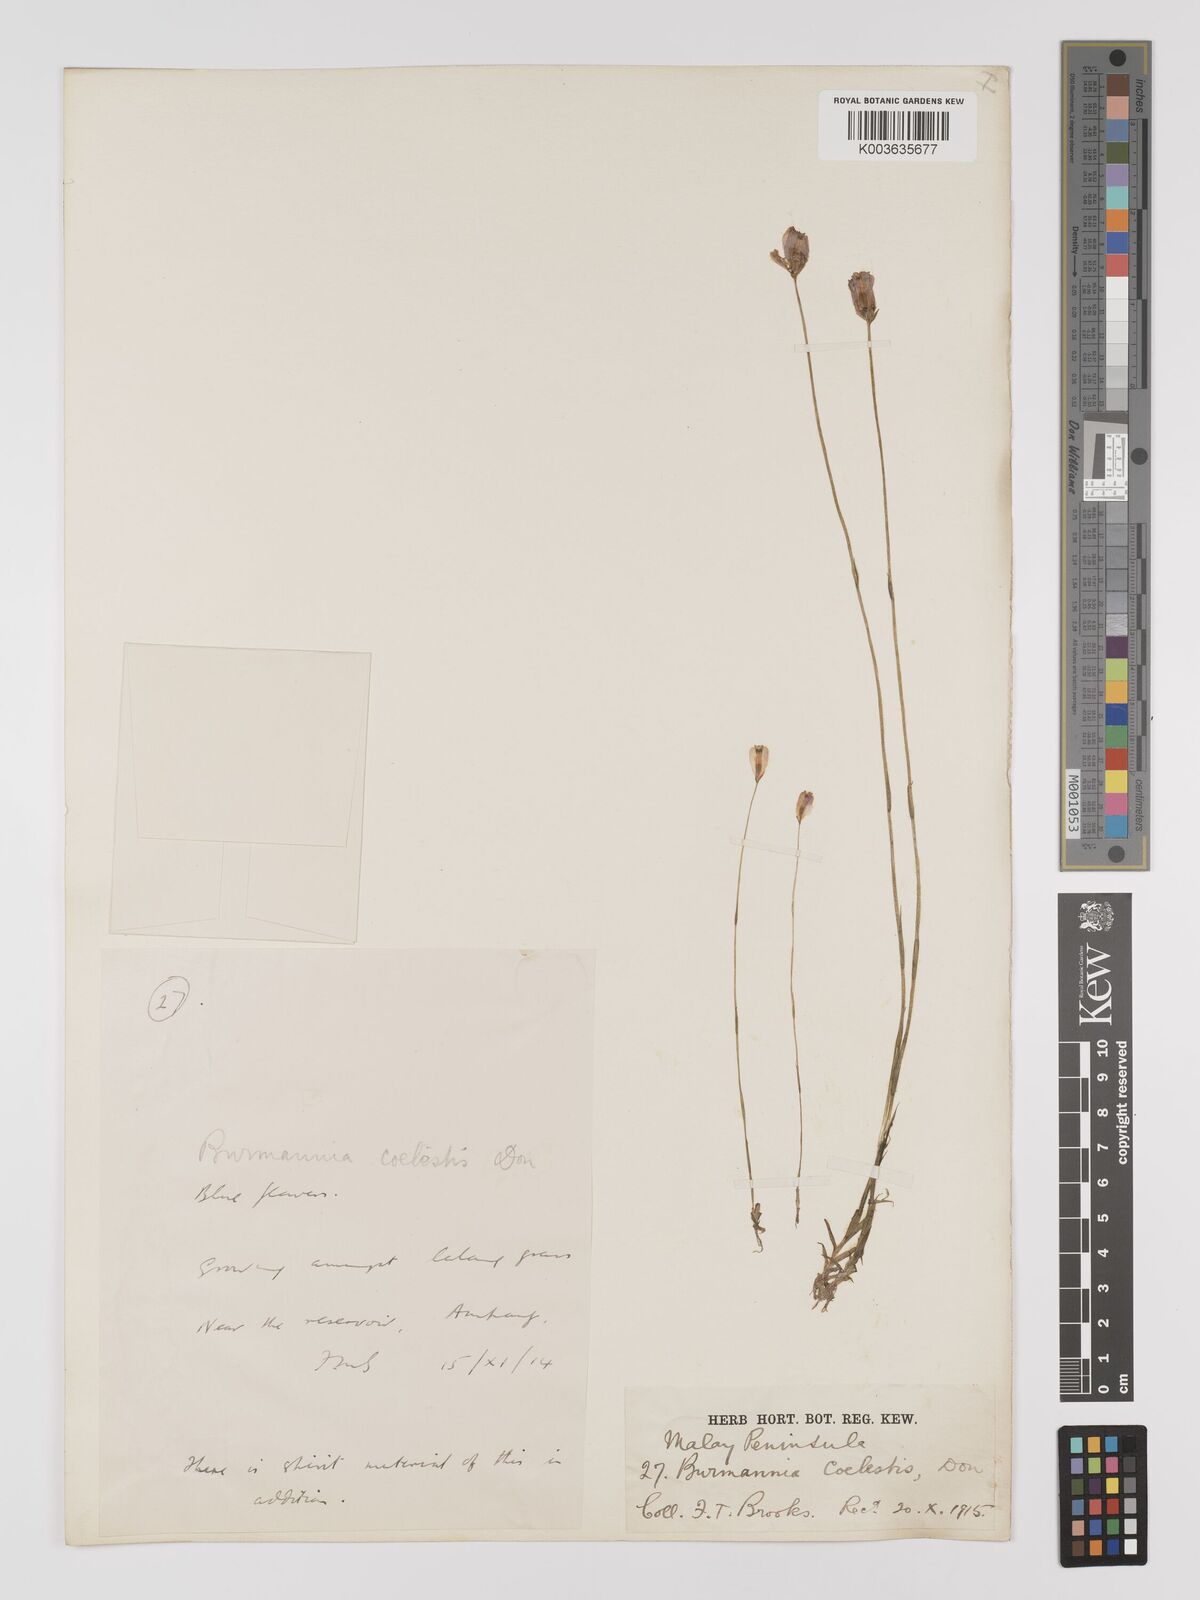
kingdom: Plantae
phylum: Tracheophyta
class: Liliopsida
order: Dioscoreales
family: Burmanniaceae
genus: Burmannia
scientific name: Burmannia coelestis
